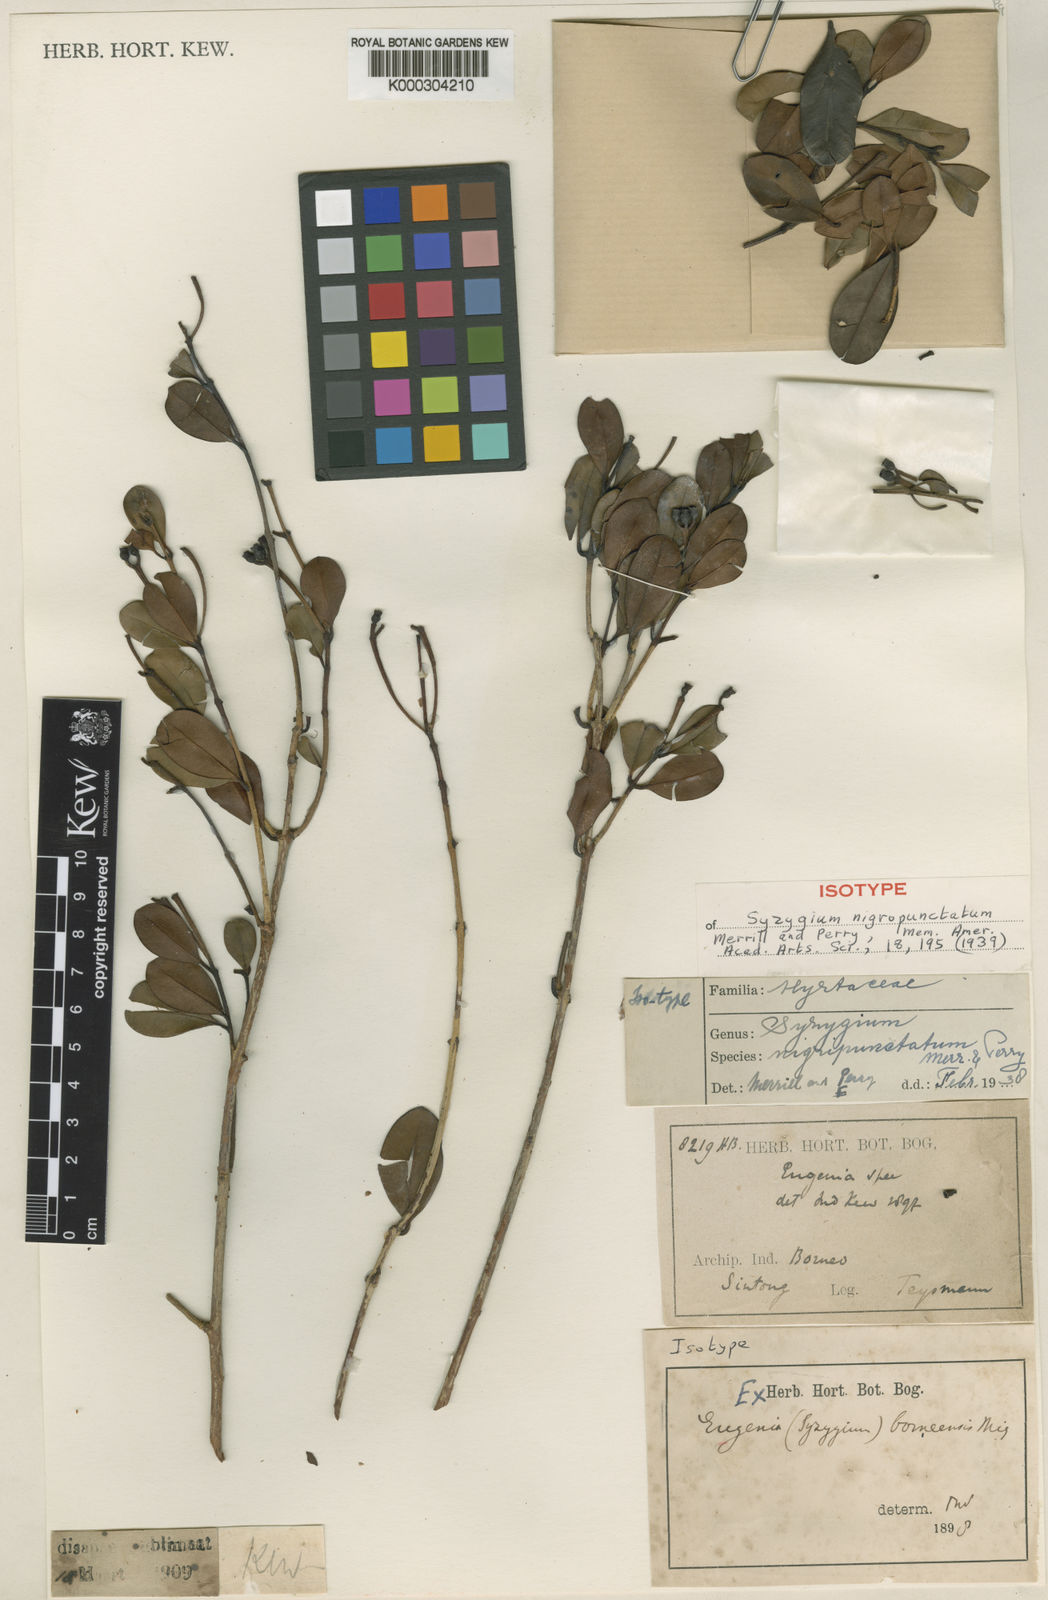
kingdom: Plantae
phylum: Tracheophyta
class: Magnoliopsida
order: Myrtales
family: Myrtaceae
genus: Syzygium
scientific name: Syzygium nigropunctatum
